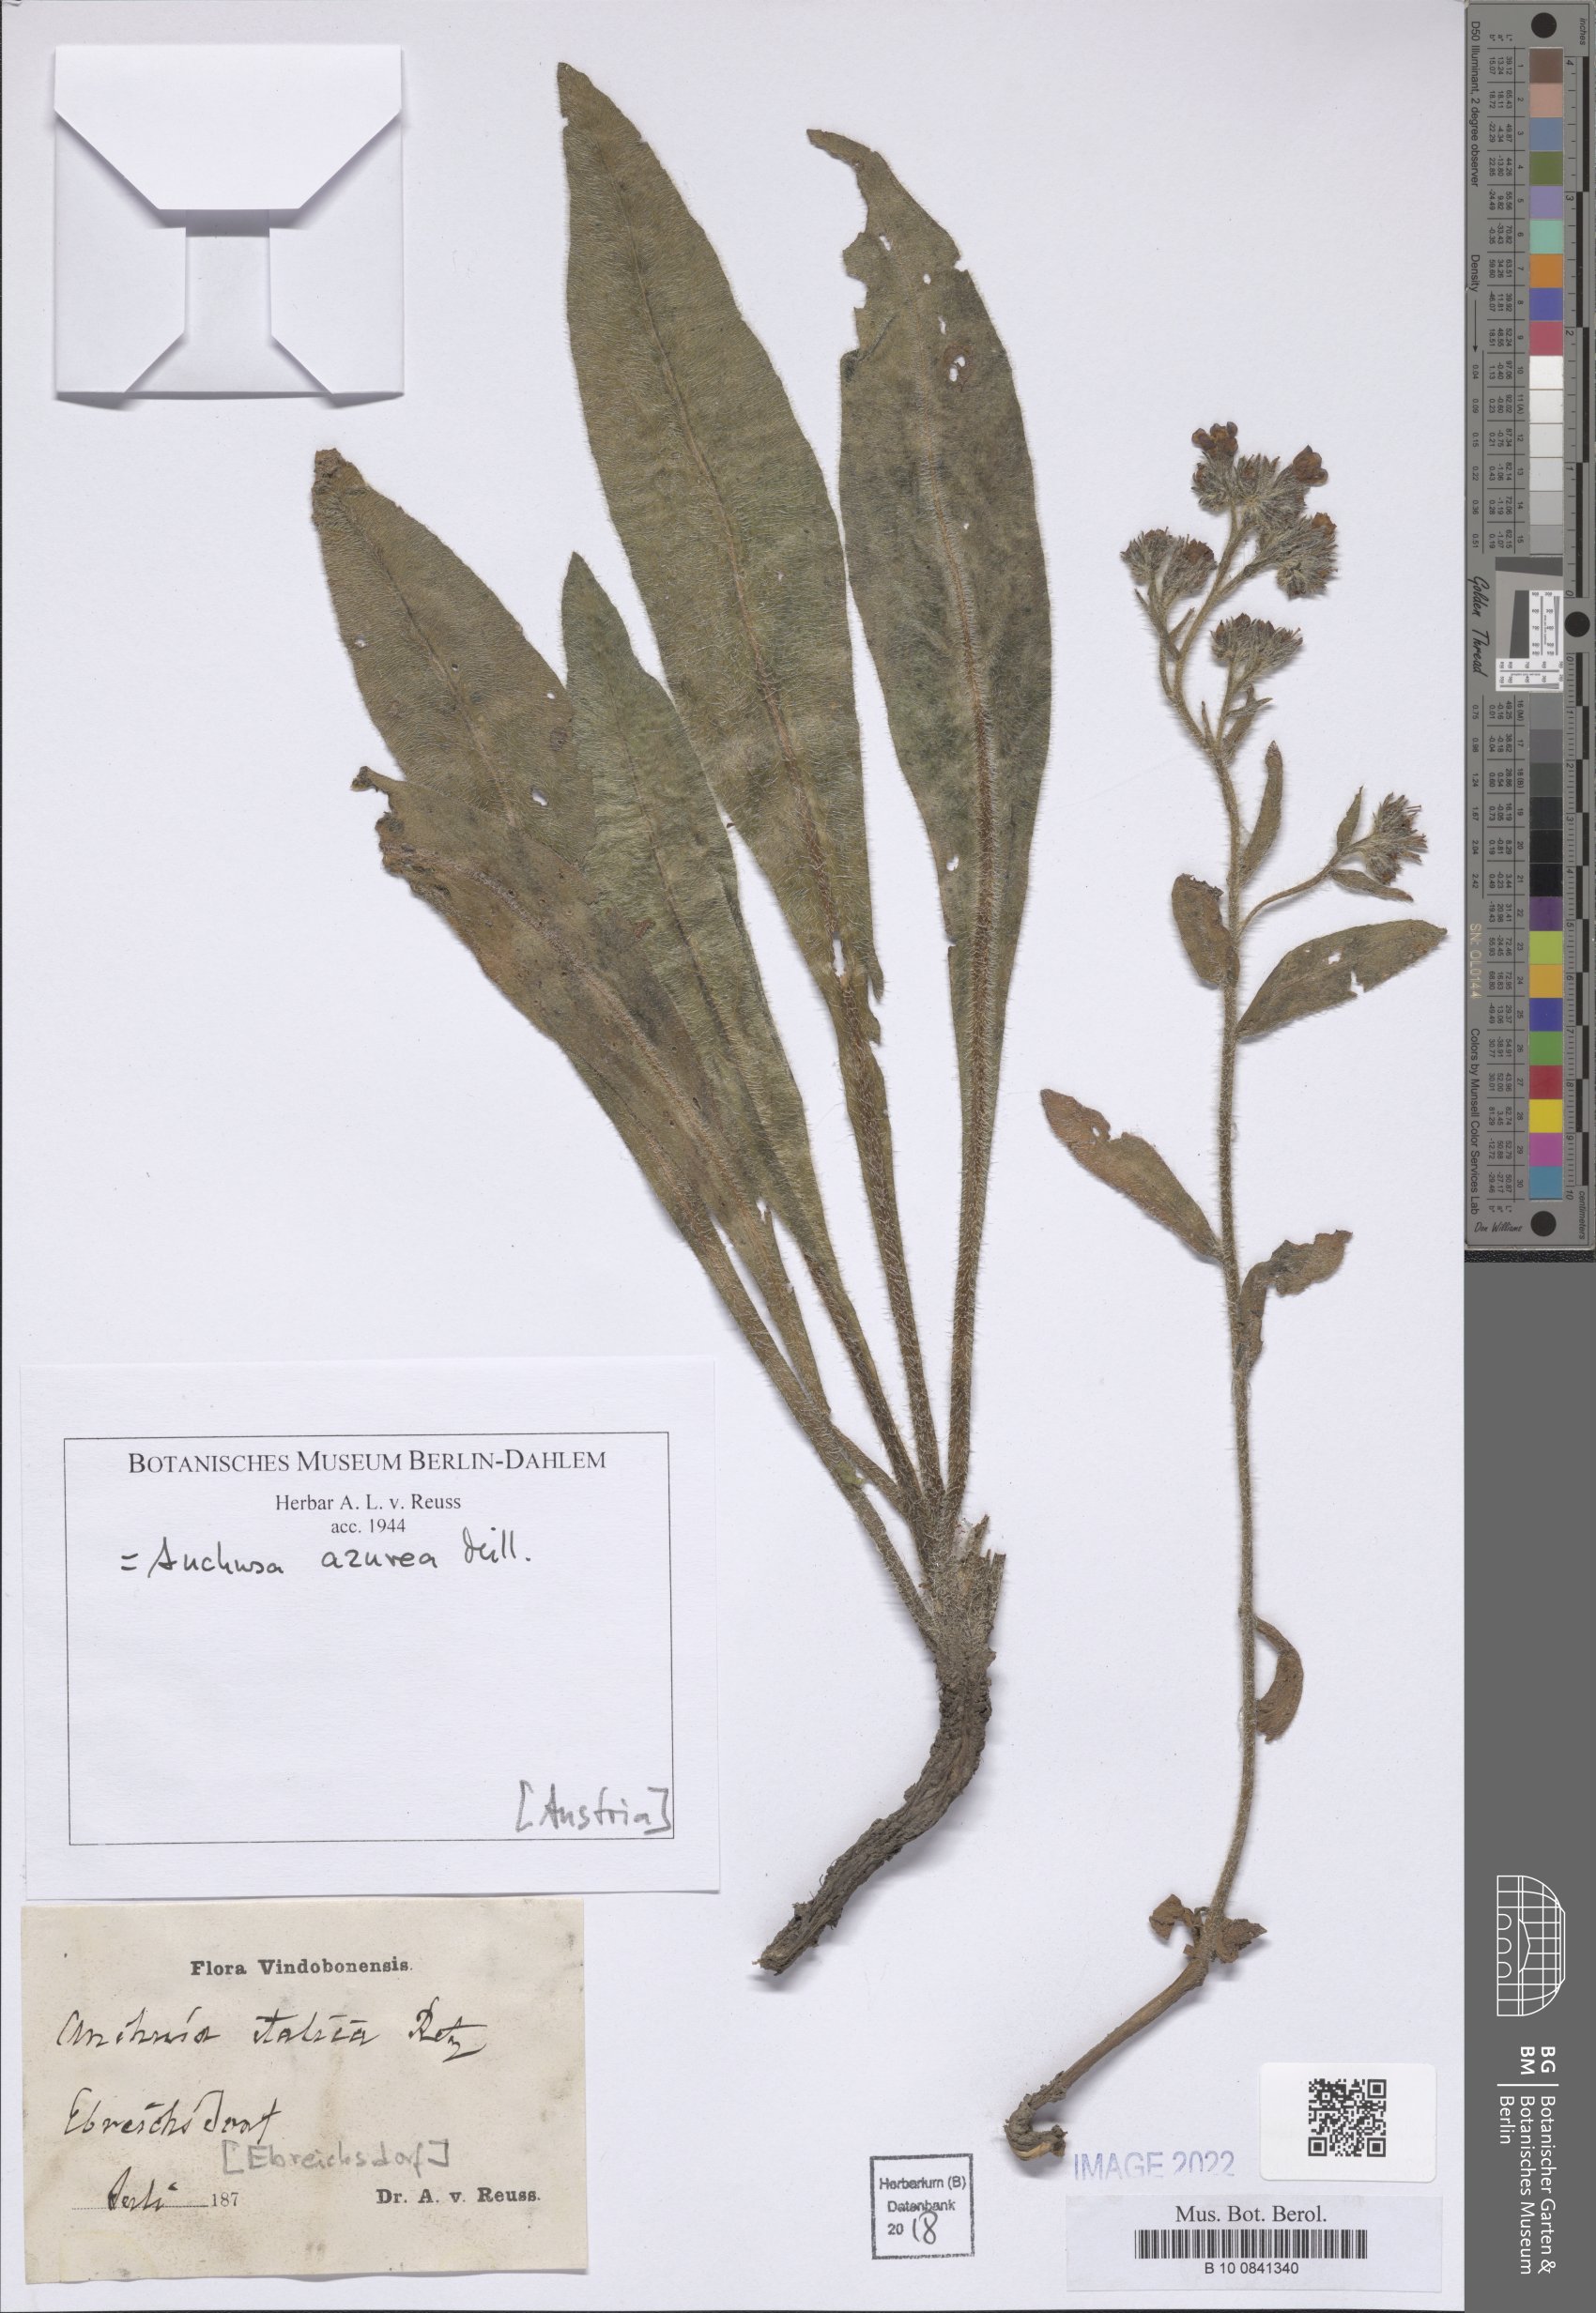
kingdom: Plantae
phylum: Tracheophyta
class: Magnoliopsida
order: Boraginales
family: Boraginaceae
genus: Anchusa
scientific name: Anchusa azurea
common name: Garden anchusa
